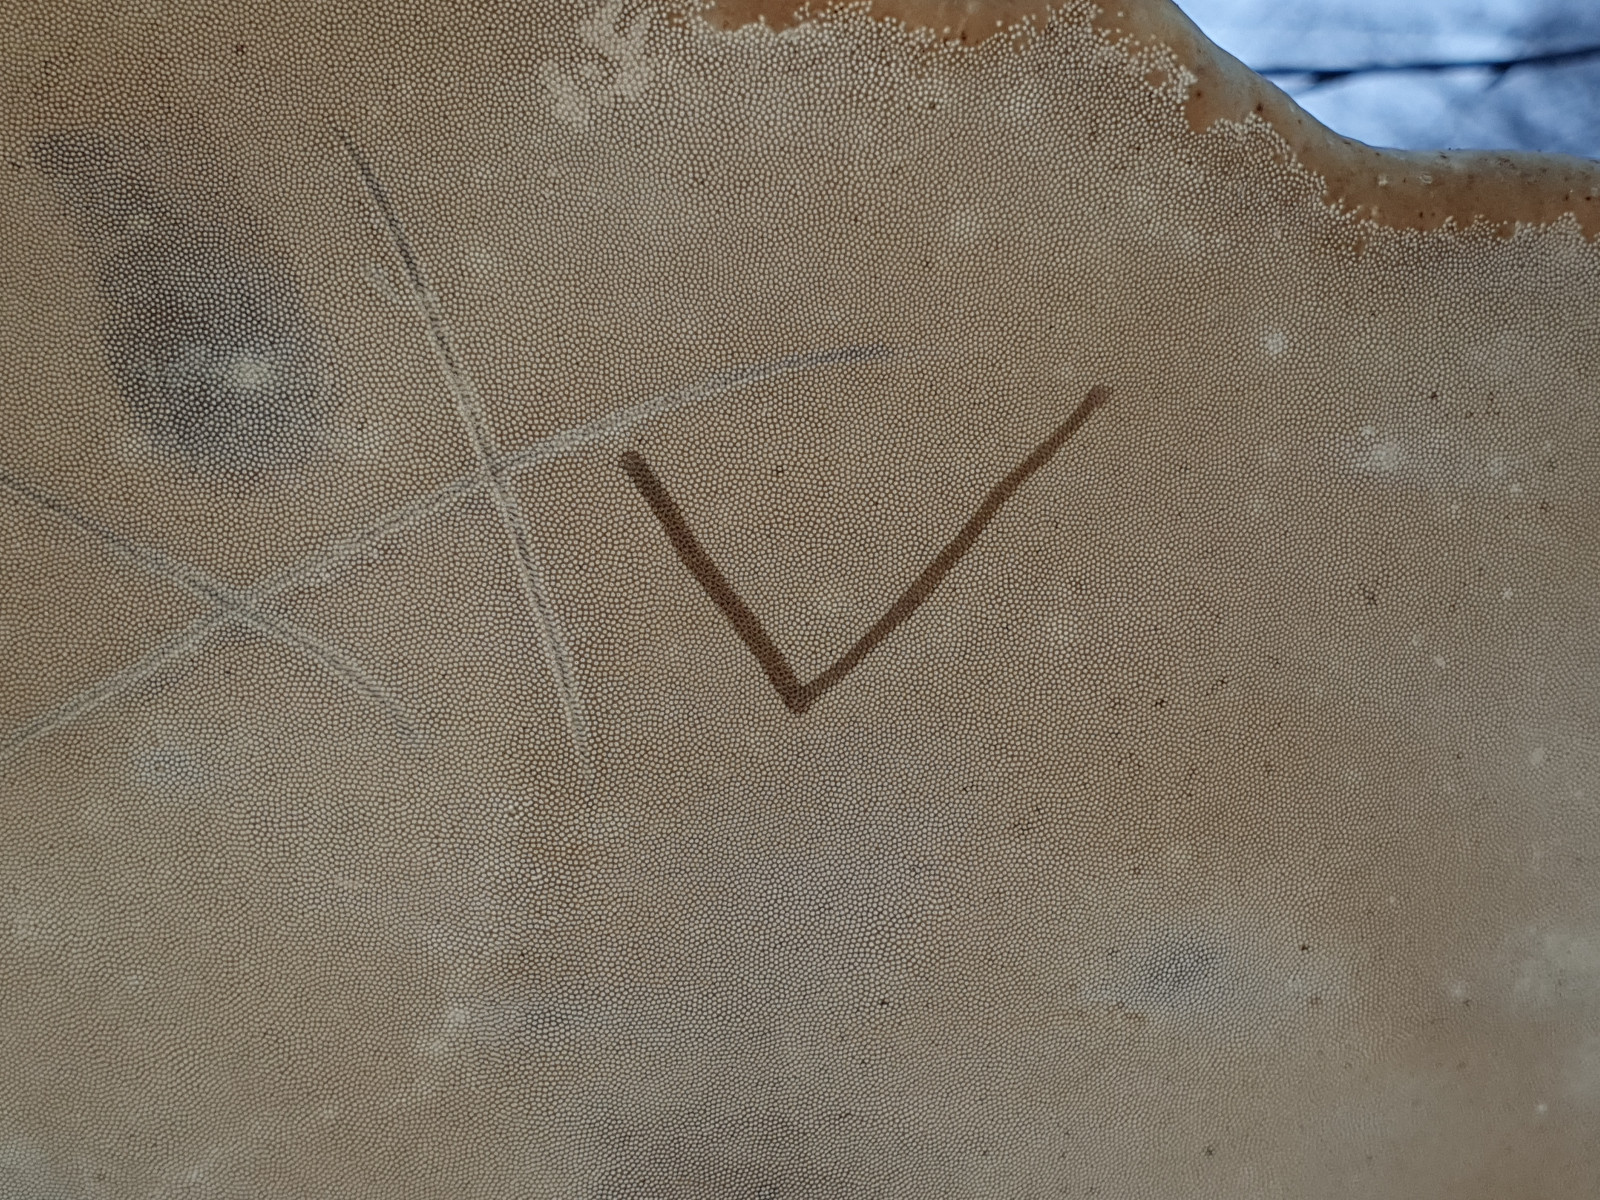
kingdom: Fungi
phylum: Basidiomycota
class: Agaricomycetes
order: Polyporales
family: Polyporaceae
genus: Fomes
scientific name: Fomes fomentarius
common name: tøndersvamp
